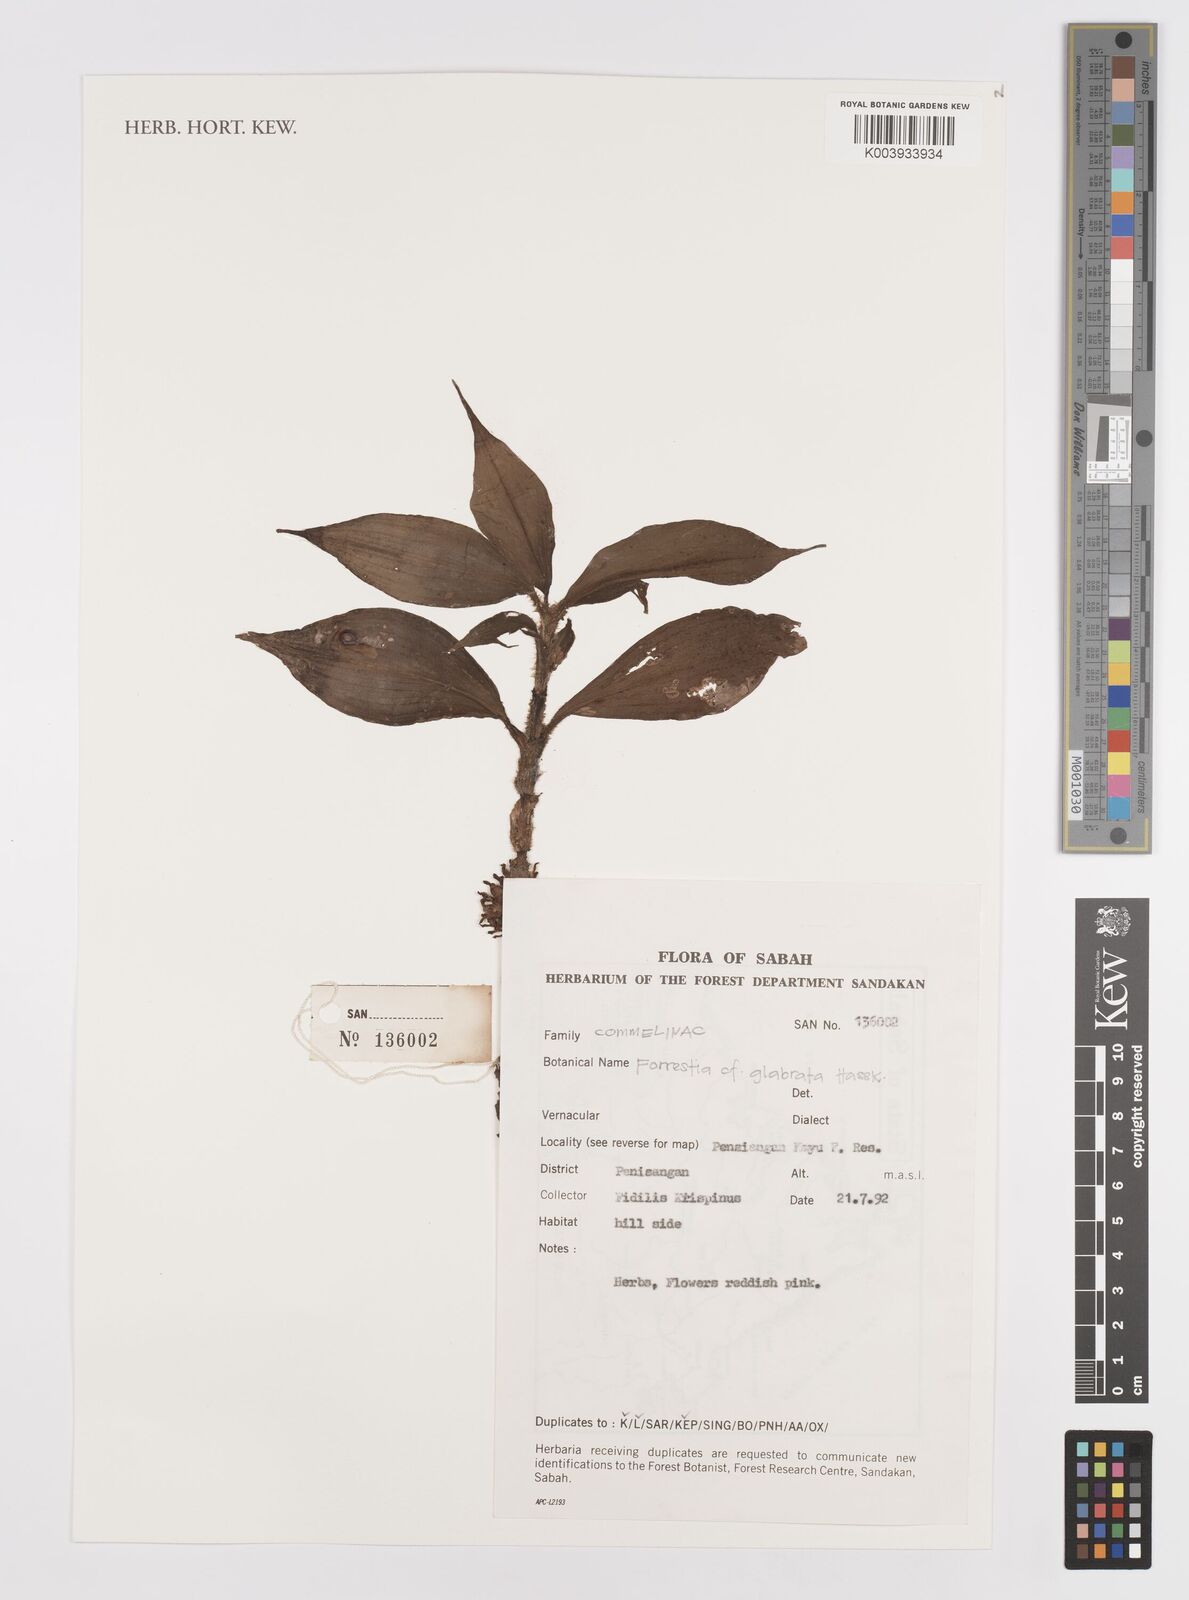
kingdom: Plantae
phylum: Tracheophyta
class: Liliopsida
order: Commelinales
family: Commelinaceae
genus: Amischotolype
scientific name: Amischotolype glabrata
